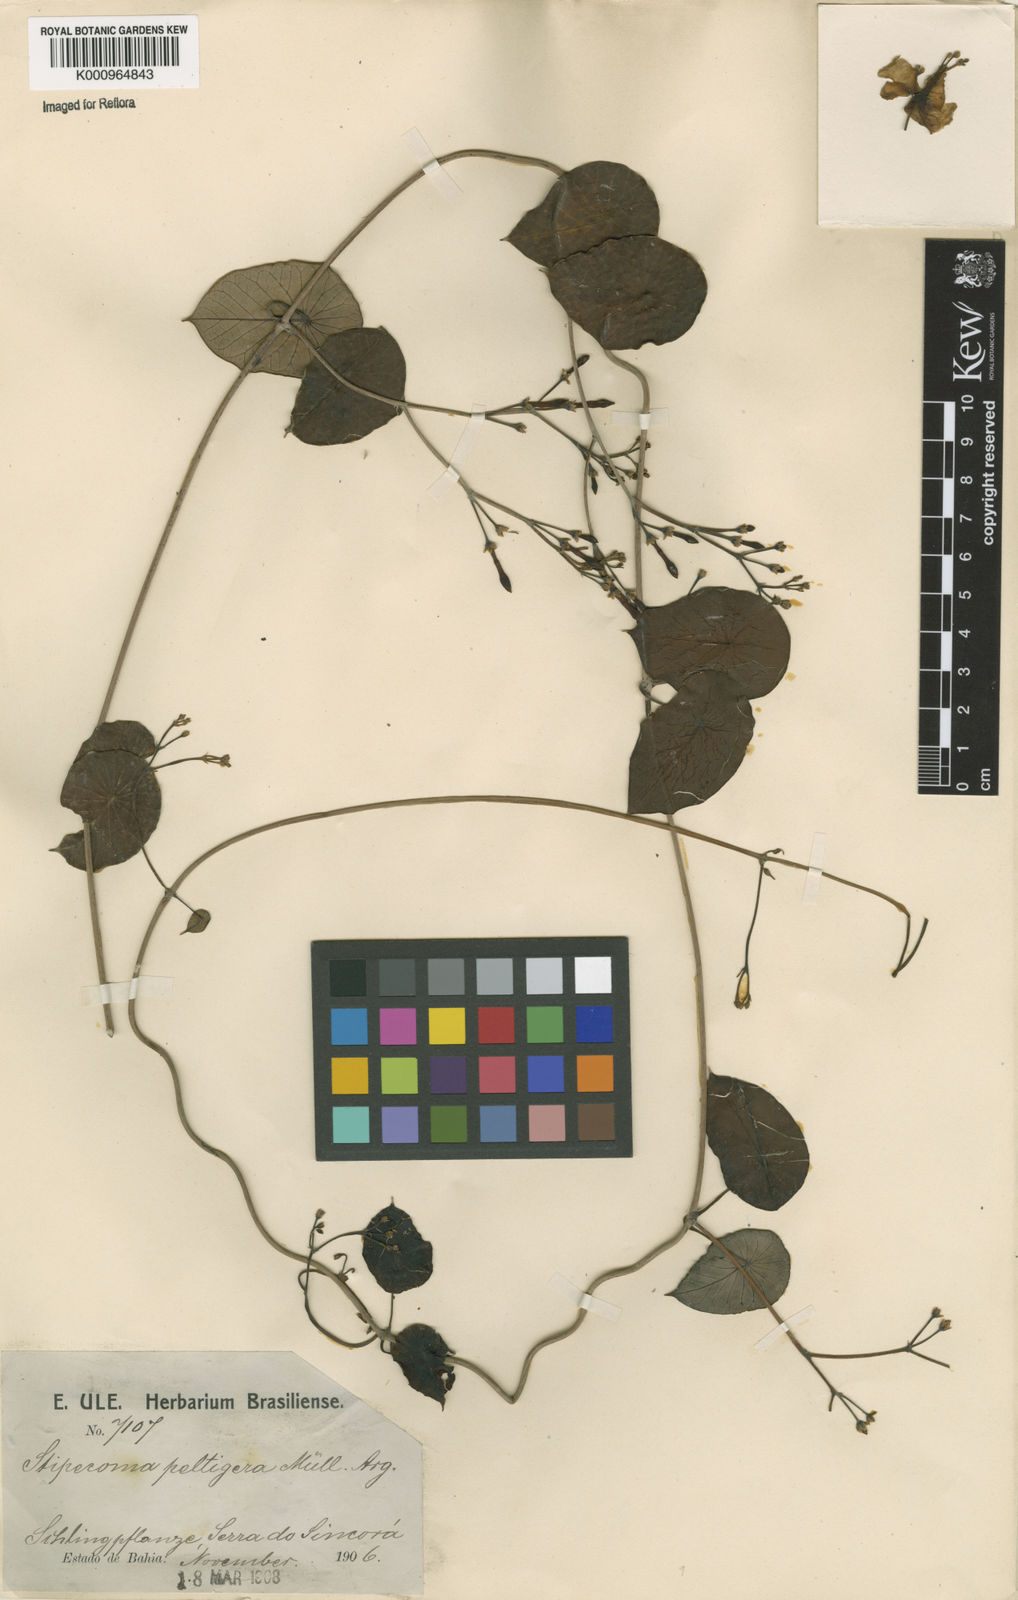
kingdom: Plantae
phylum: Tracheophyta
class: Magnoliopsida
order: Gentianales
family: Apocynaceae
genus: Stipecoma
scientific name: Stipecoma
